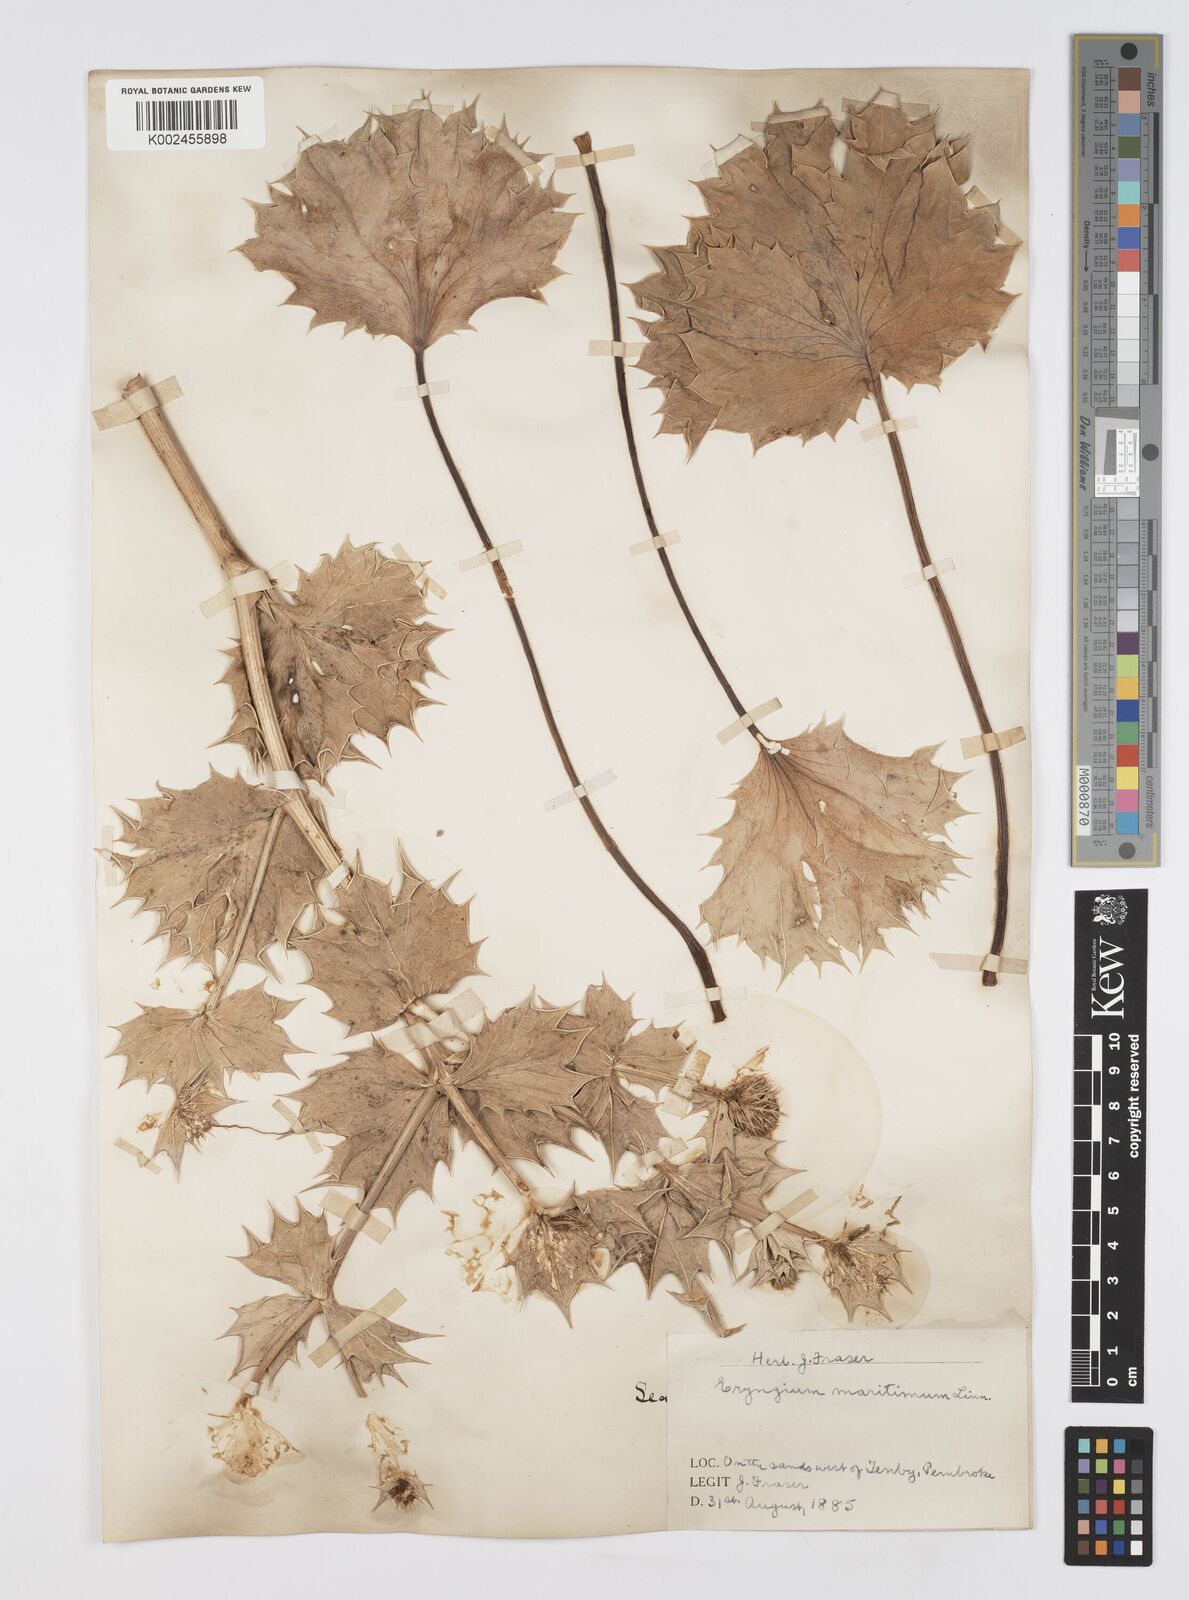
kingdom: Plantae
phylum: Tracheophyta
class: Magnoliopsida
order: Apiales
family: Apiaceae
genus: Eryngium
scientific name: Eryngium maritimum
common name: Sea-holly
